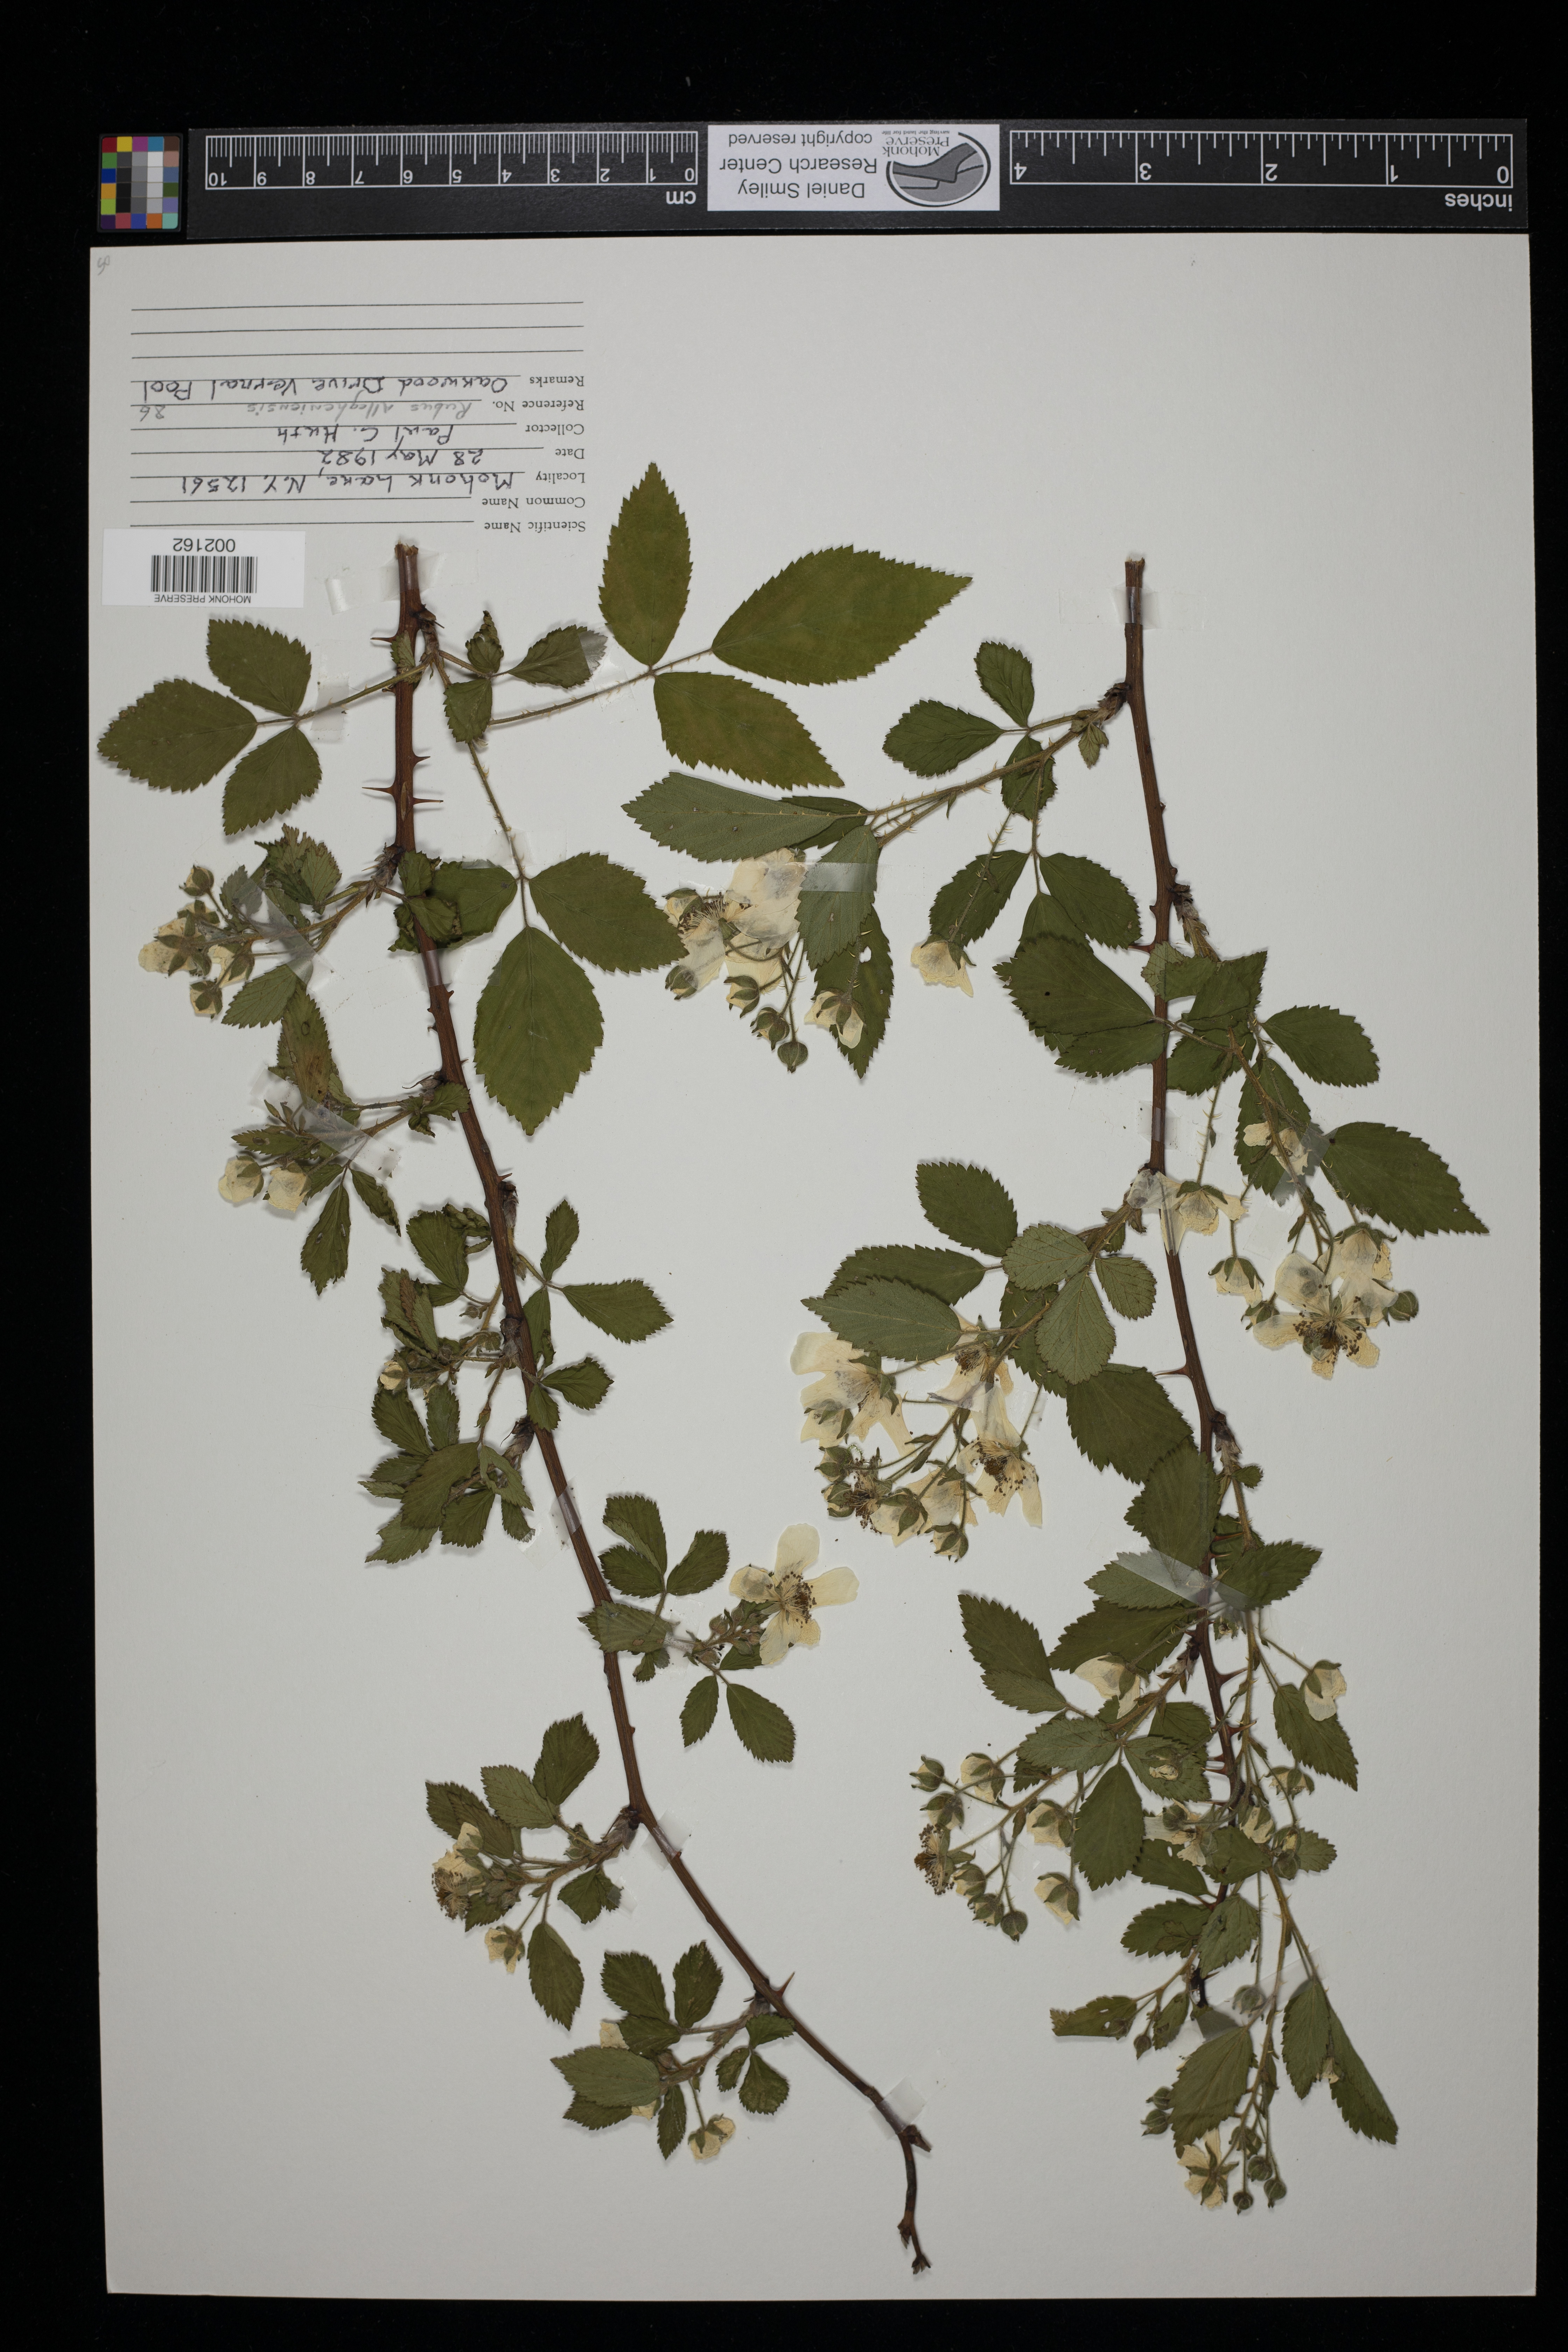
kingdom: Plantae
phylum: Tracheophyta
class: Magnoliopsida
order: Rosales
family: Rosaceae
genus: Rubus
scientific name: Rubus allegheniensis
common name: Allegheny blackberry
